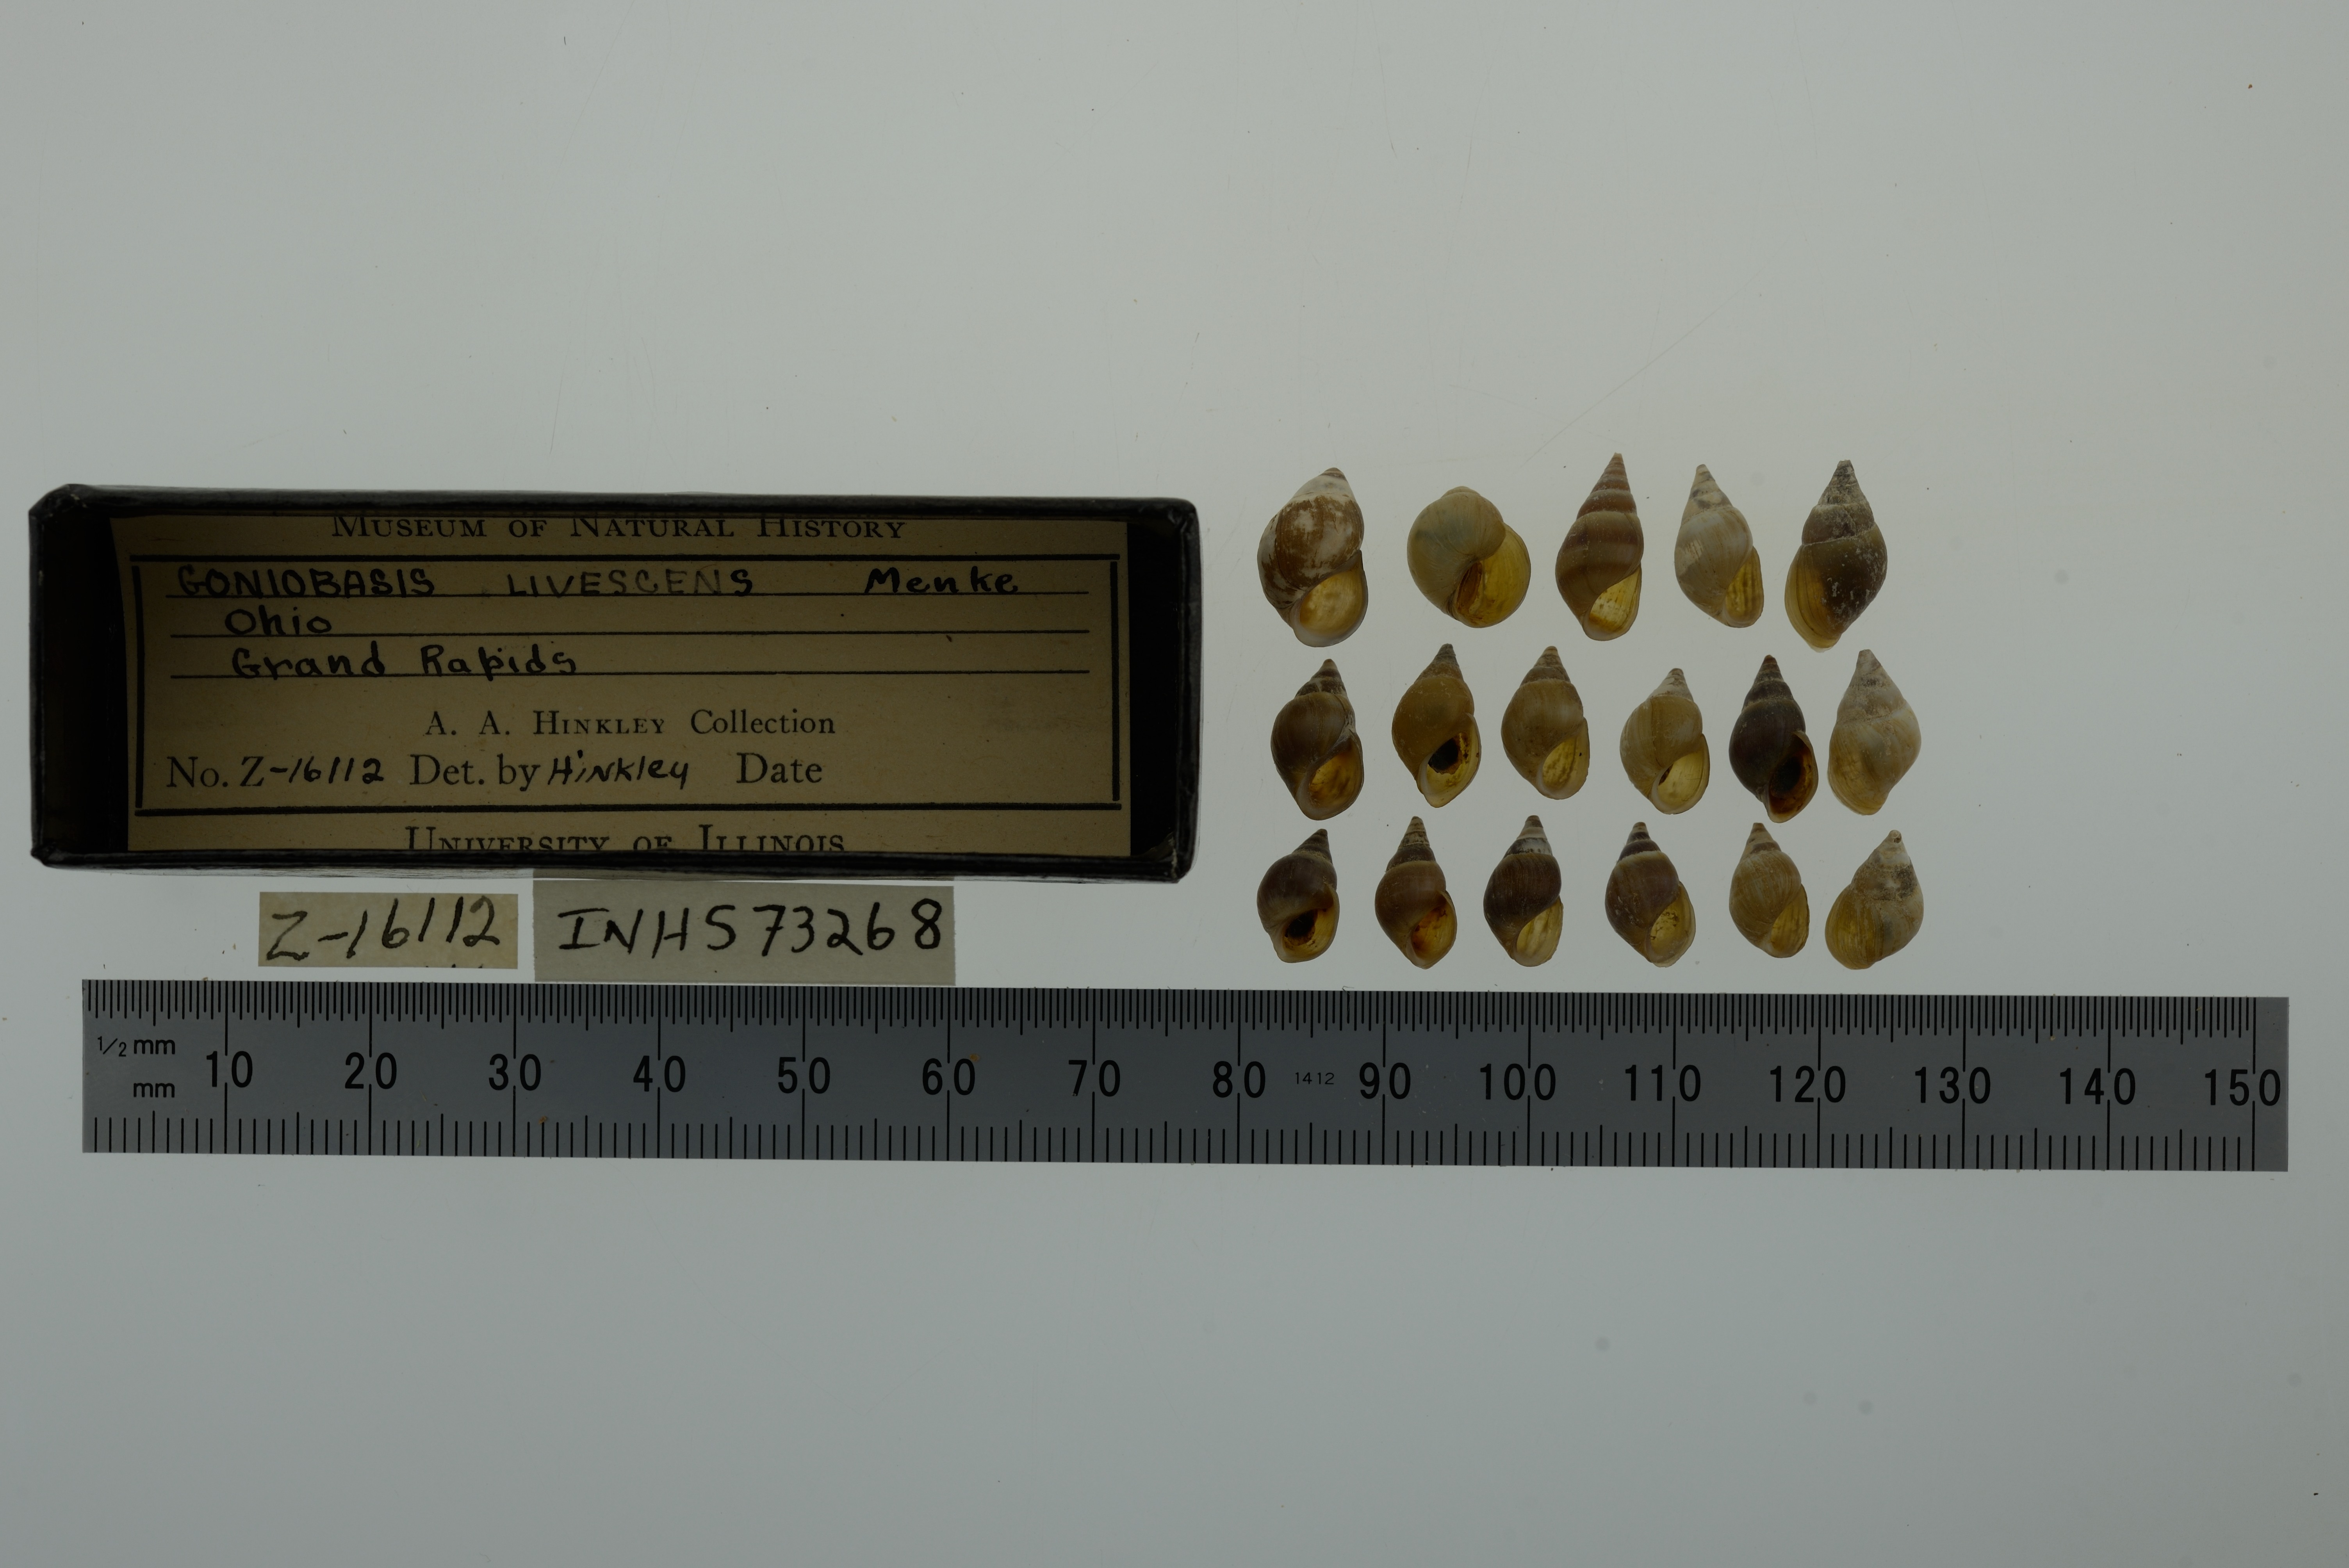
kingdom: Animalia
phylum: Mollusca
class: Gastropoda
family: Pleuroceridae
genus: Elimia
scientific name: Elimia livescens
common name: Liver elimia
